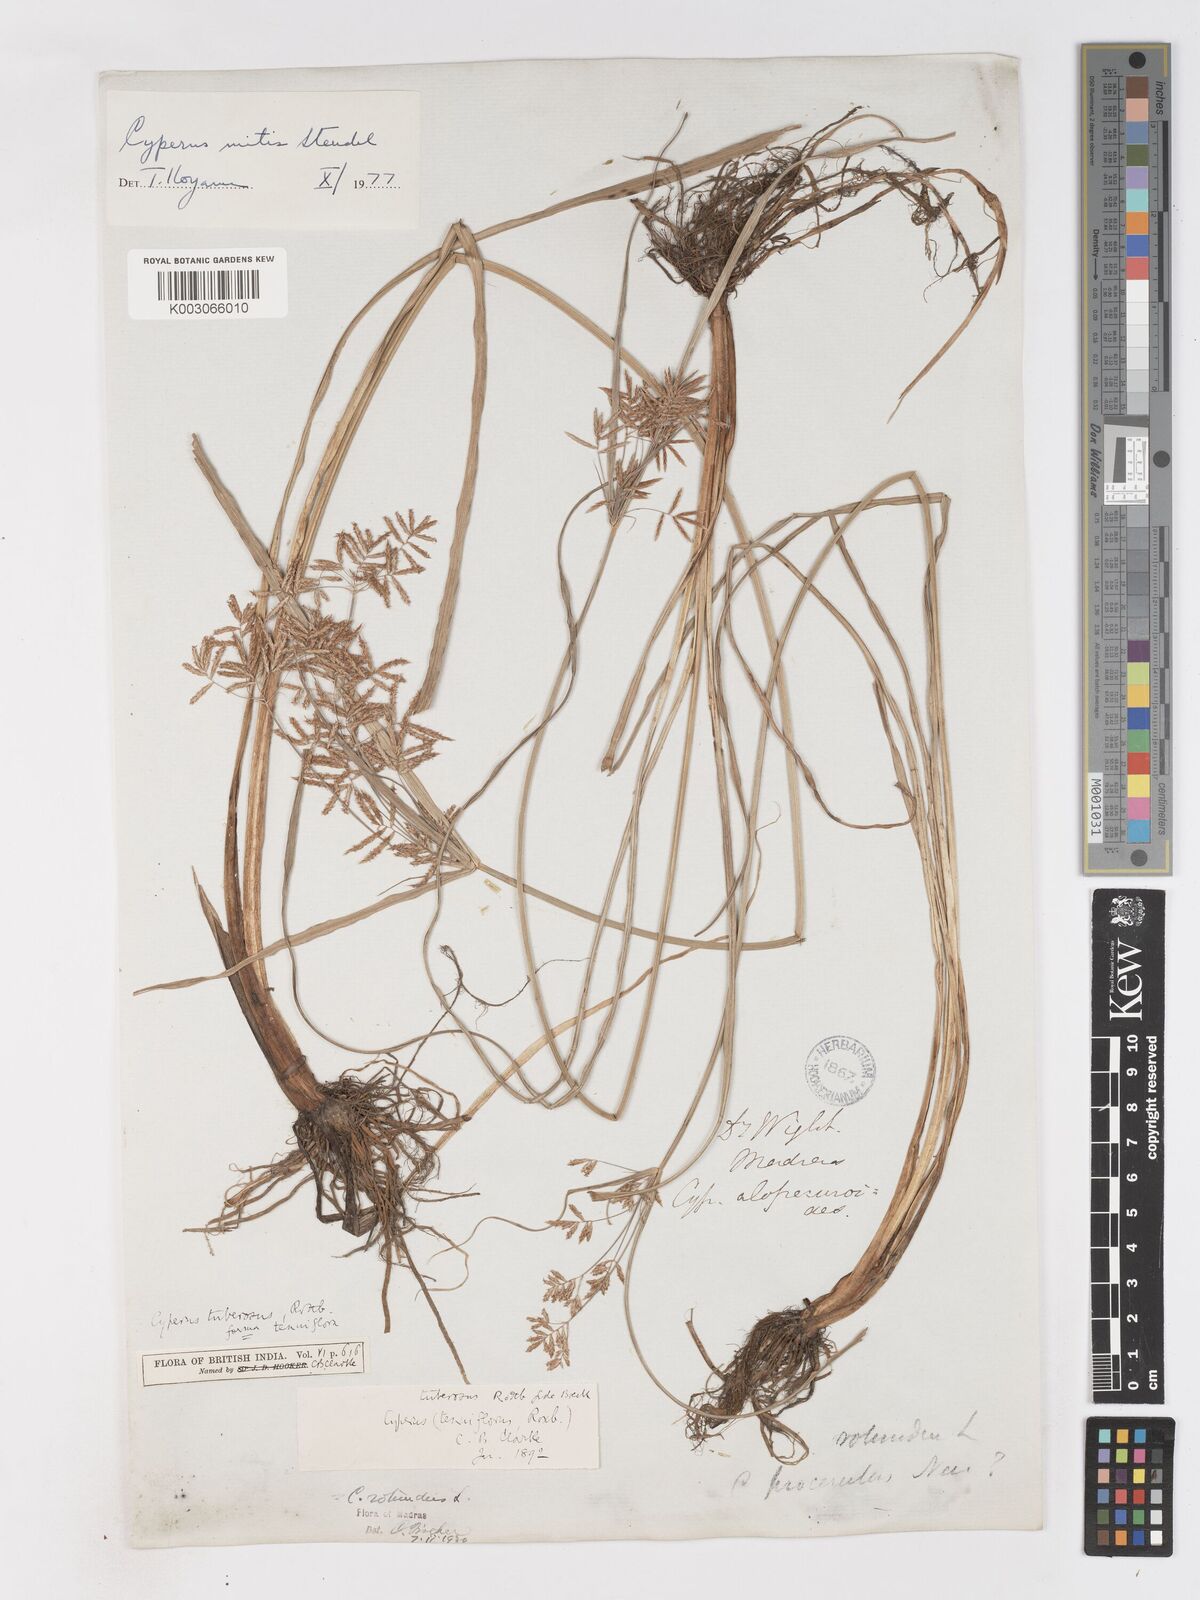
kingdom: Plantae
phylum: Tracheophyta
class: Liliopsida
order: Poales
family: Cyperaceae
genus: Cyperus
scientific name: Cyperus mitis
